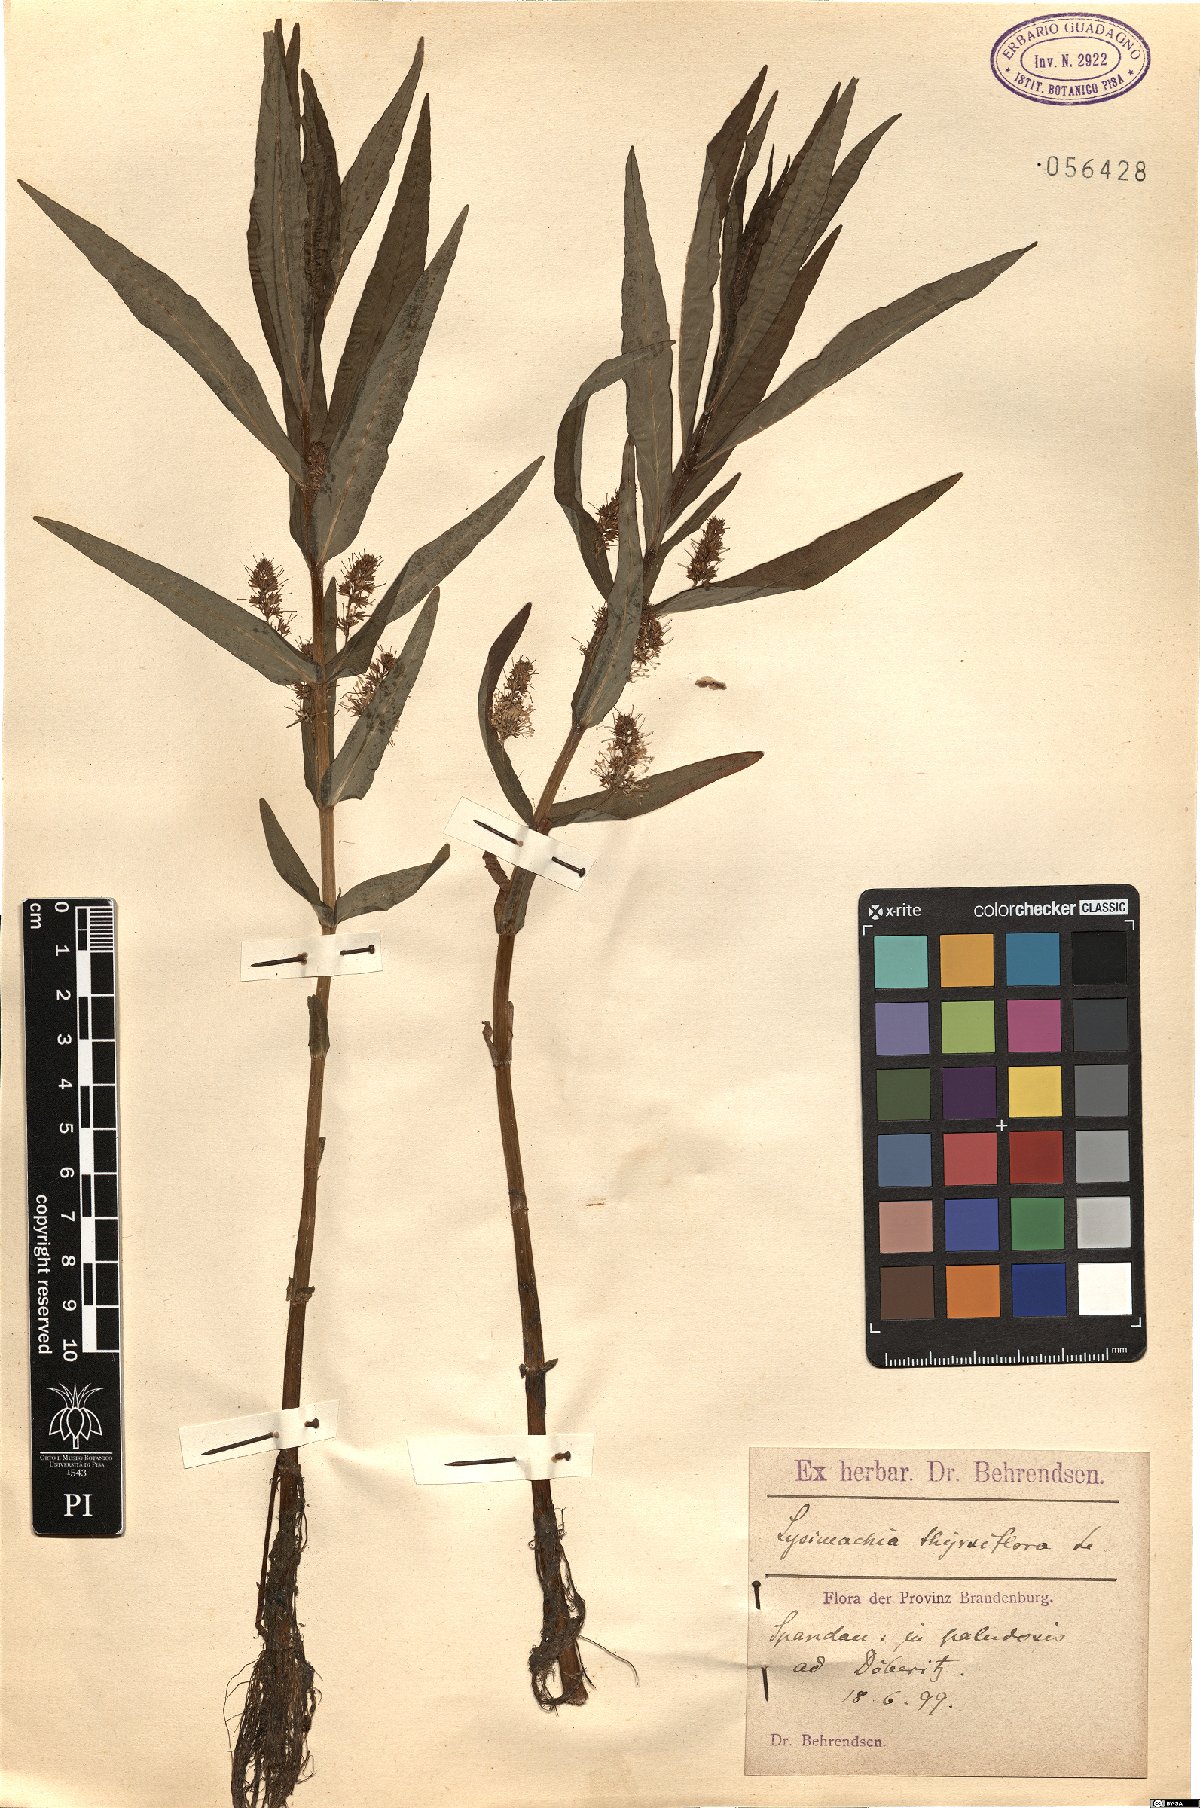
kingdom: Plantae
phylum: Tracheophyta
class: Magnoliopsida
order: Ericales
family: Primulaceae
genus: Lysimachia
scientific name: Lysimachia thyrsiflora
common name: Tufted loosestrife
